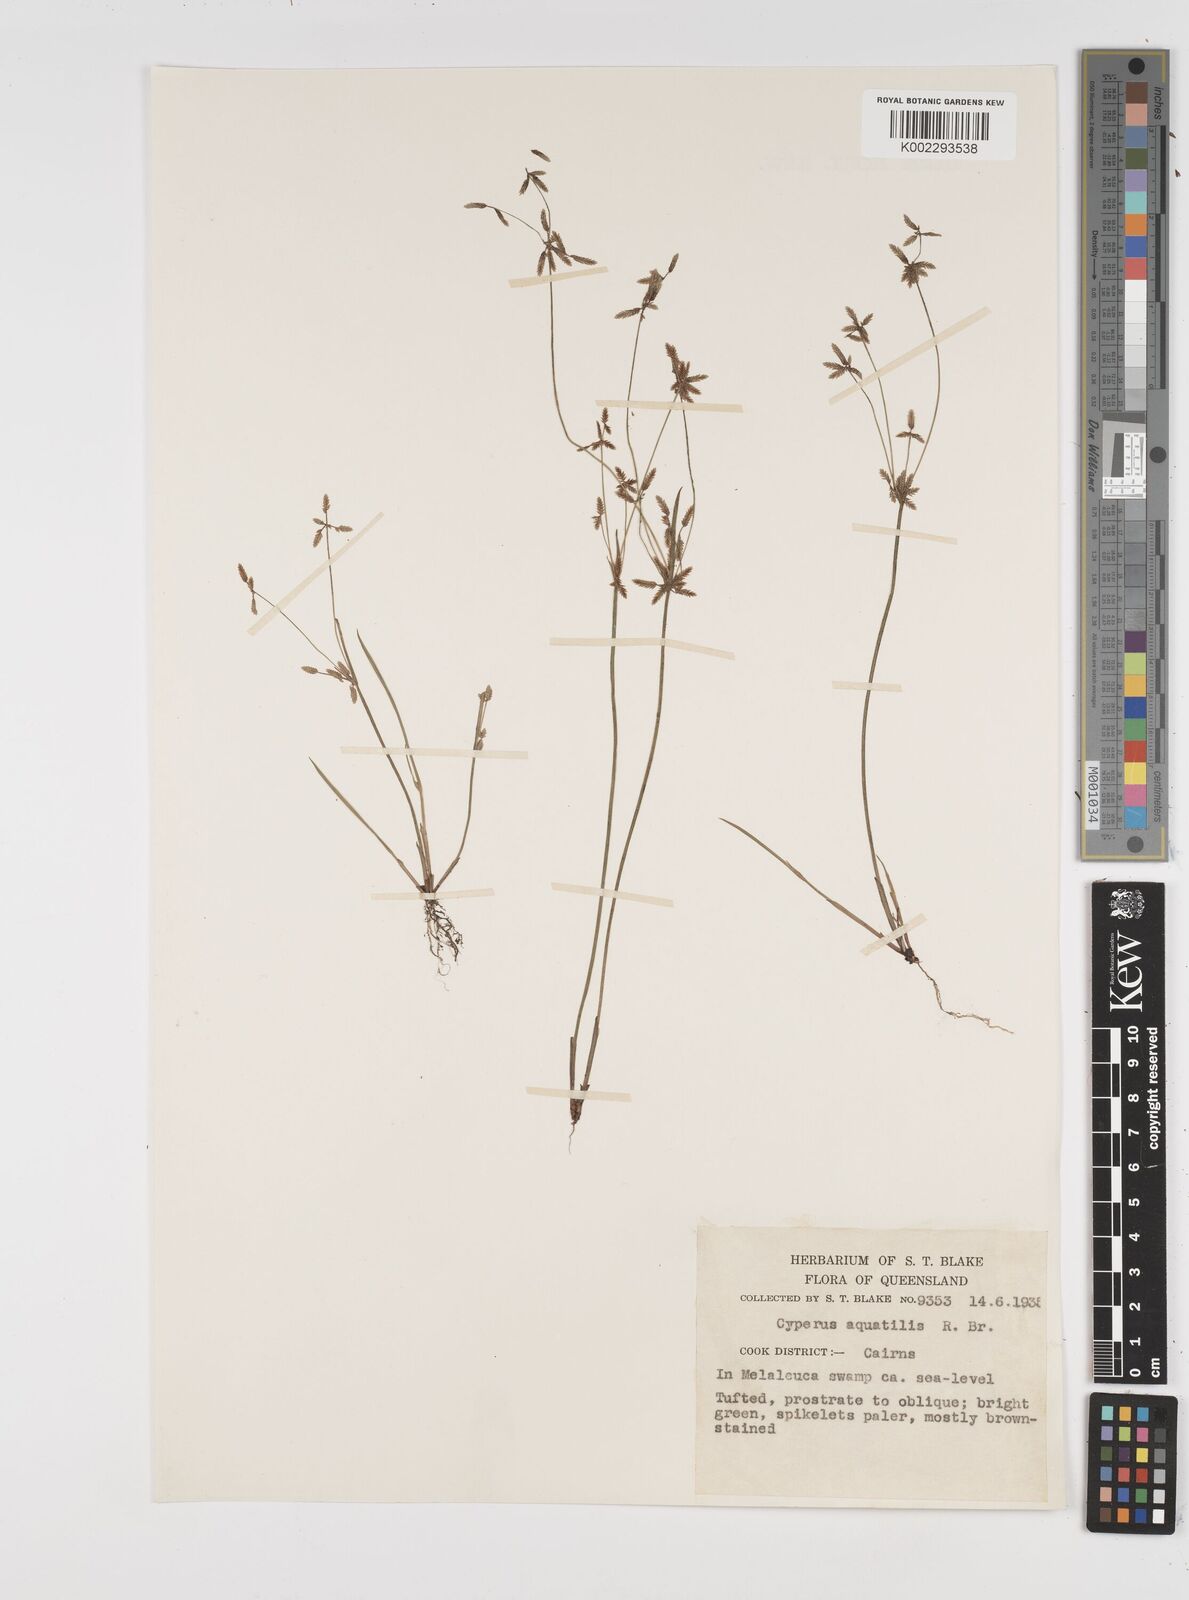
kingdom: Plantae
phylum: Tracheophyta
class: Liliopsida
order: Poales
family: Cyperaceae
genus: Cyperus
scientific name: Cyperus aquatilis
